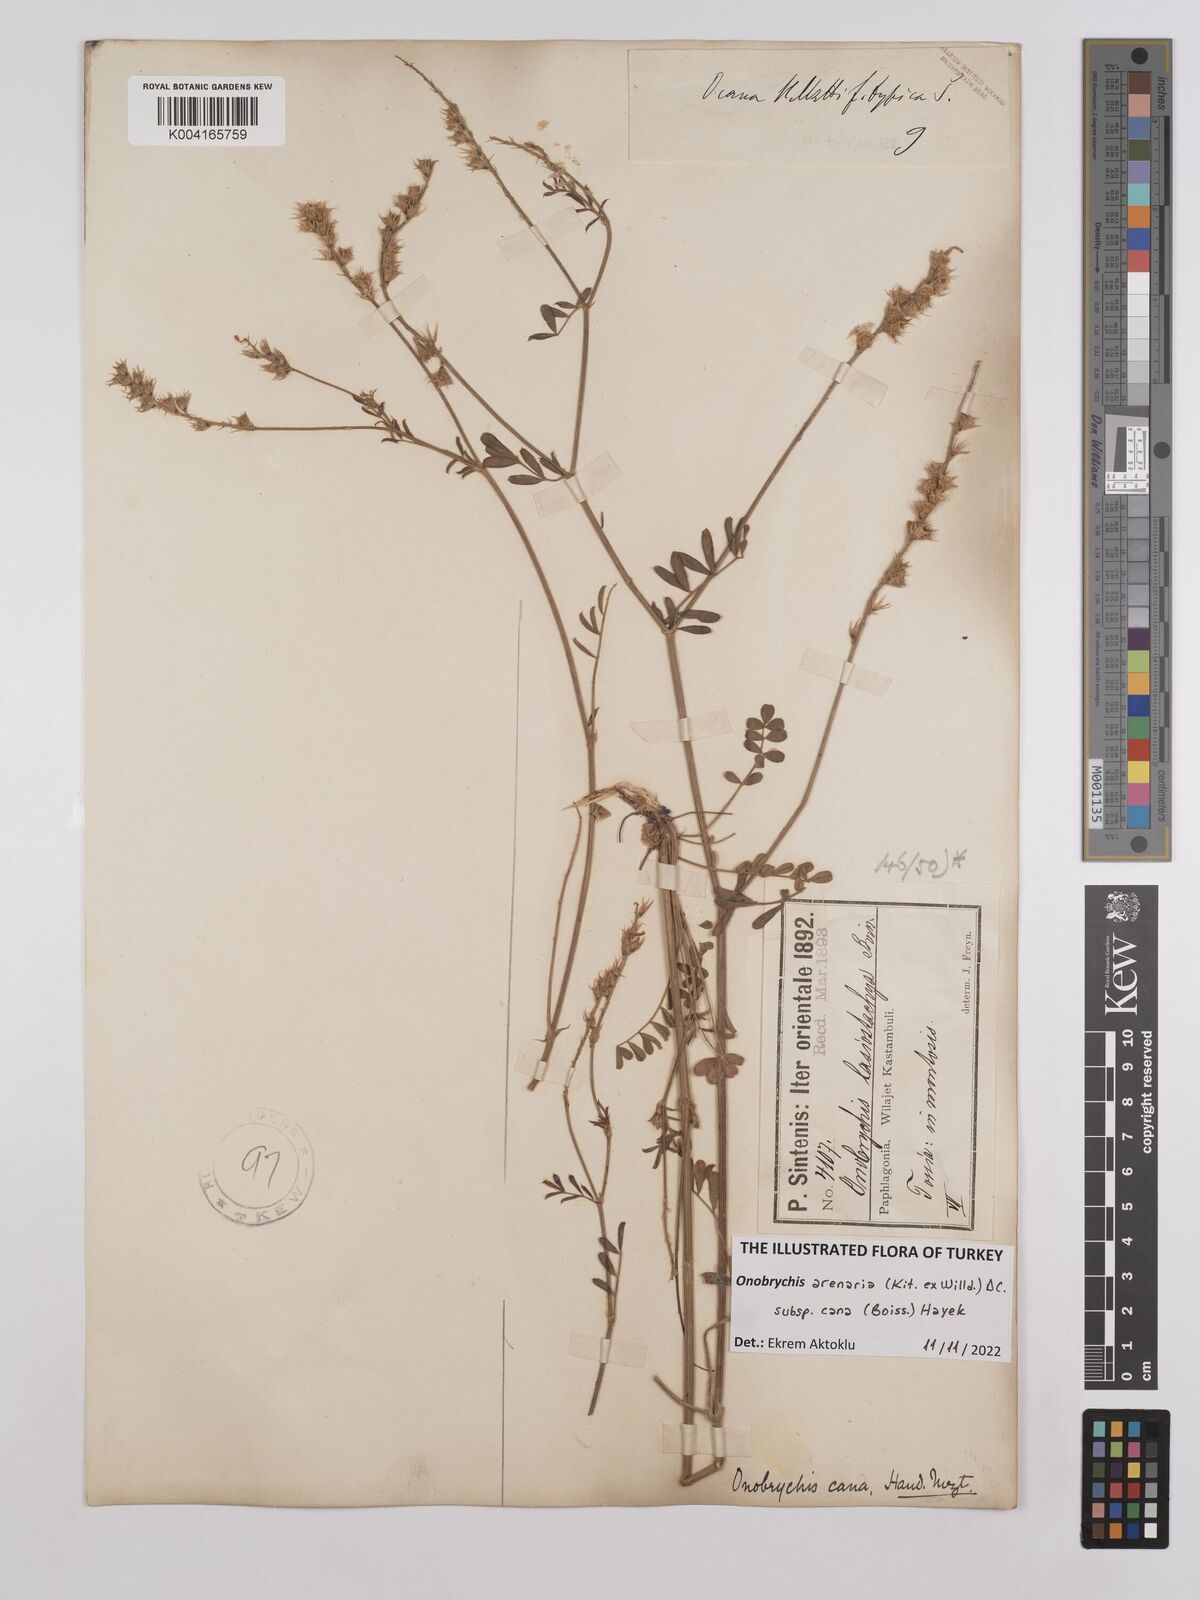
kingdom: Plantae
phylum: Tracheophyta
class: Magnoliopsida
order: Fabales
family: Fabaceae
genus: Onobrychis
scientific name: Onobrychis arenaria
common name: Sand esparcet
